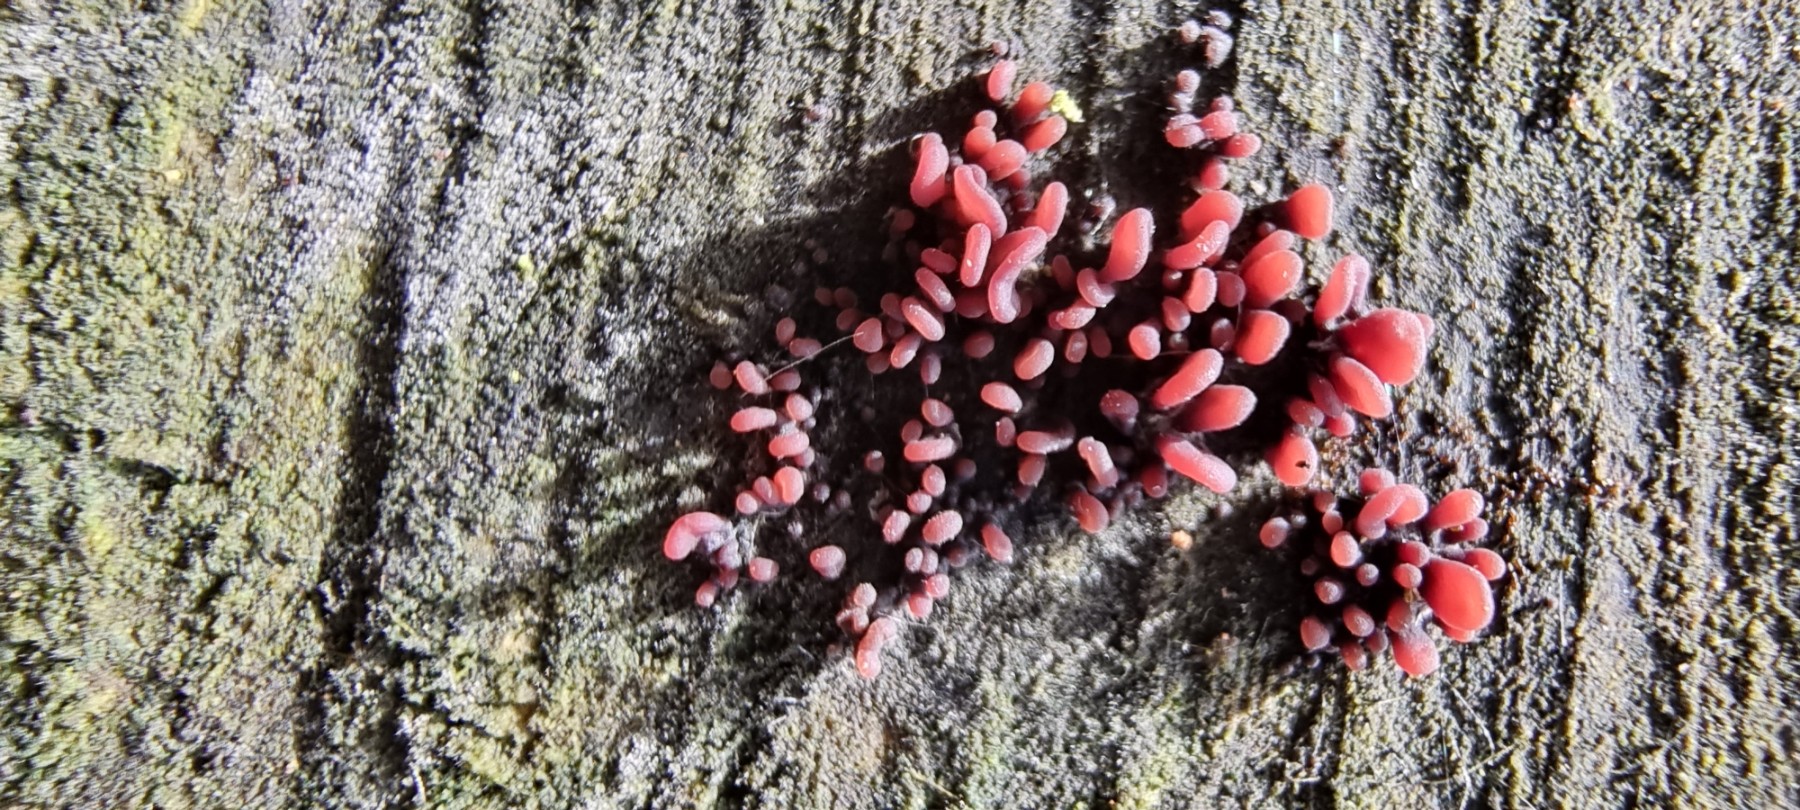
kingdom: Fungi
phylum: Ascomycota
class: Leotiomycetes
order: Helotiales
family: Gelatinodiscaceae
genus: Ascocoryne
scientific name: Ascocoryne sarcoides
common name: rødlilla sejskive
